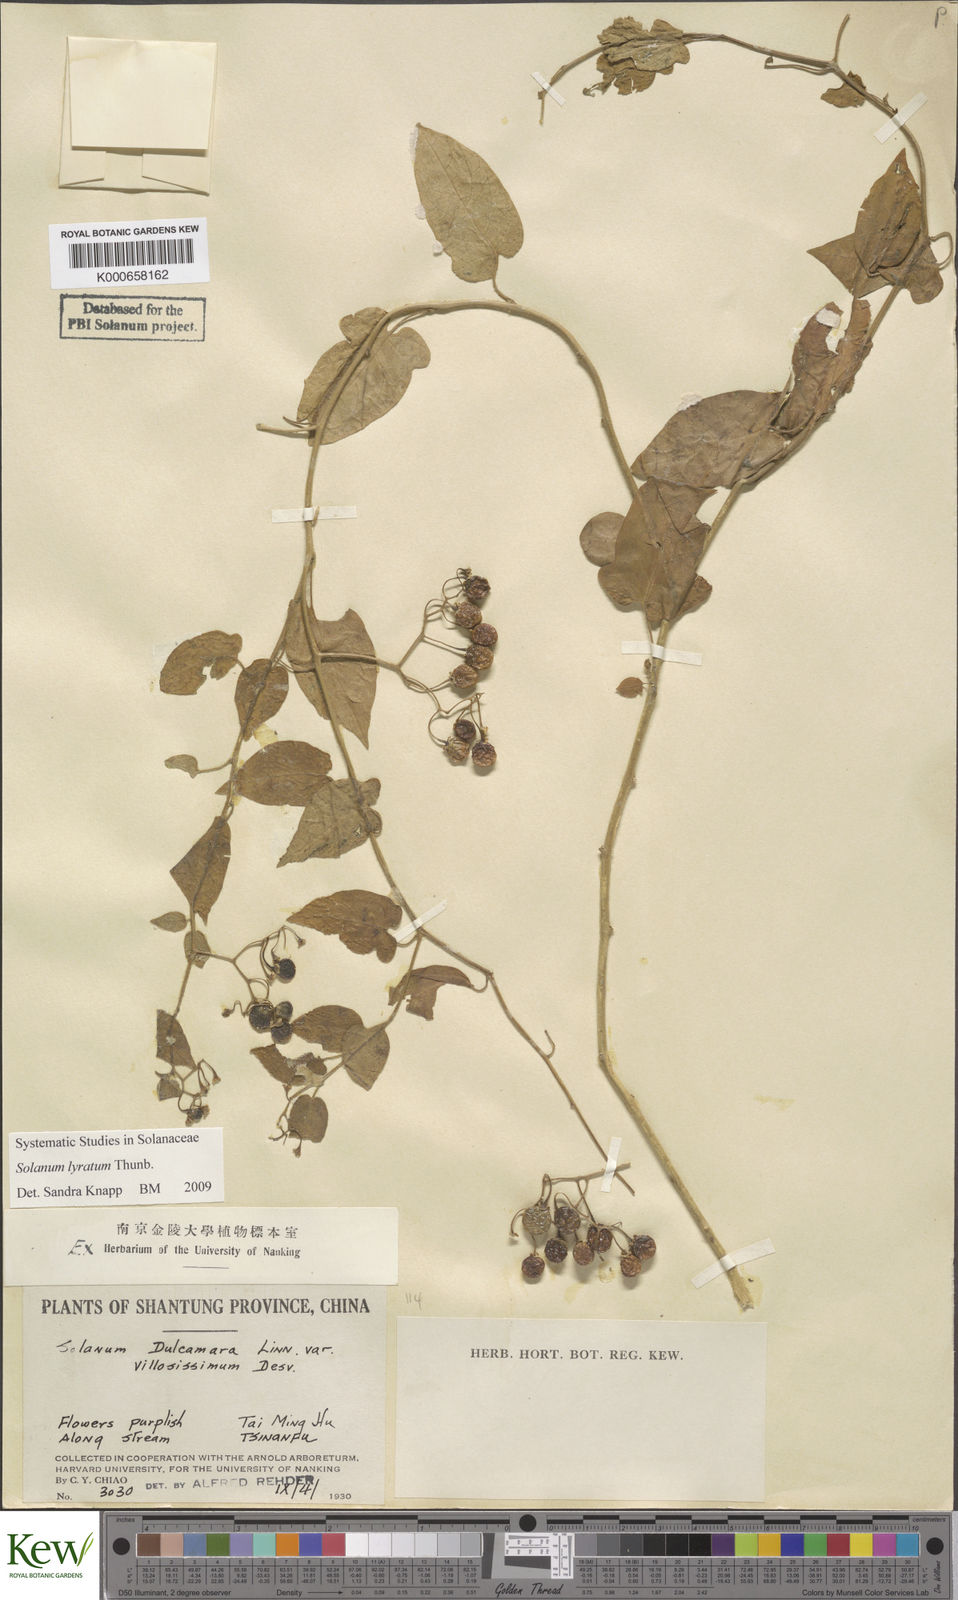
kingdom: Plantae
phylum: Tracheophyta
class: Magnoliopsida
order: Solanales
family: Solanaceae
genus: Solanum
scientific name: Solanum lyratum
